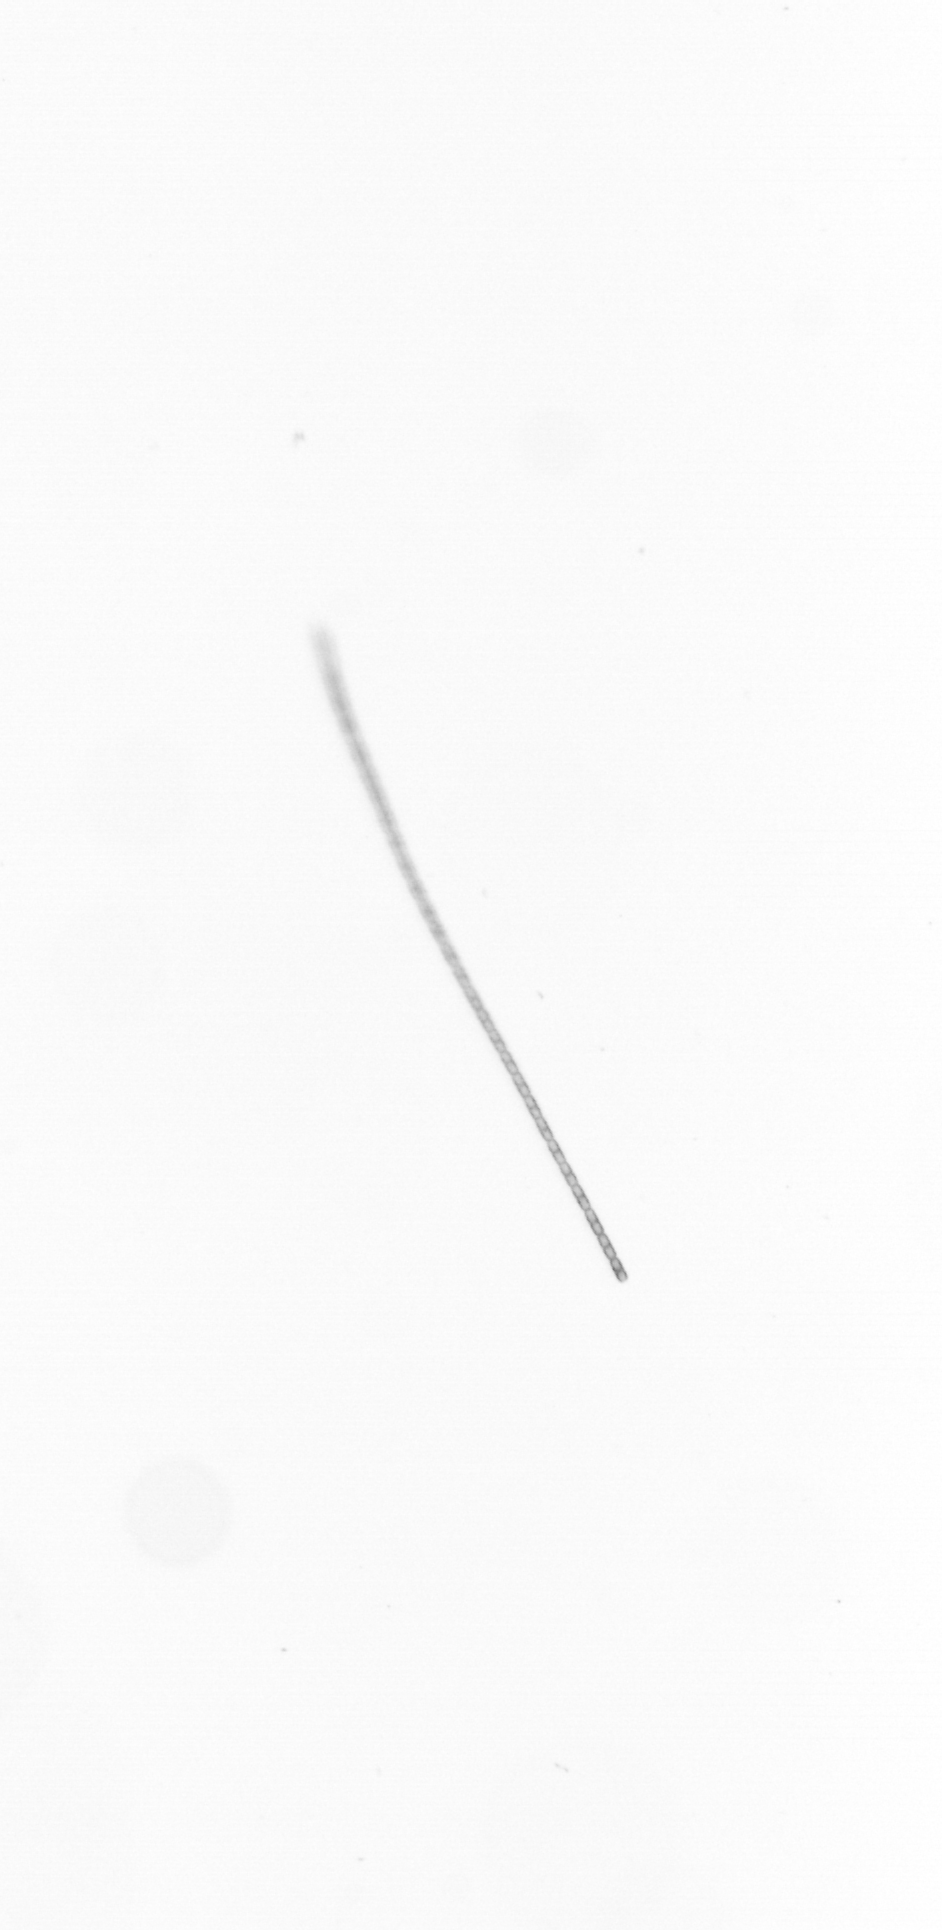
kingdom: Chromista
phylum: Ochrophyta
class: Bacillariophyceae
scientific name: Bacillariophyceae
